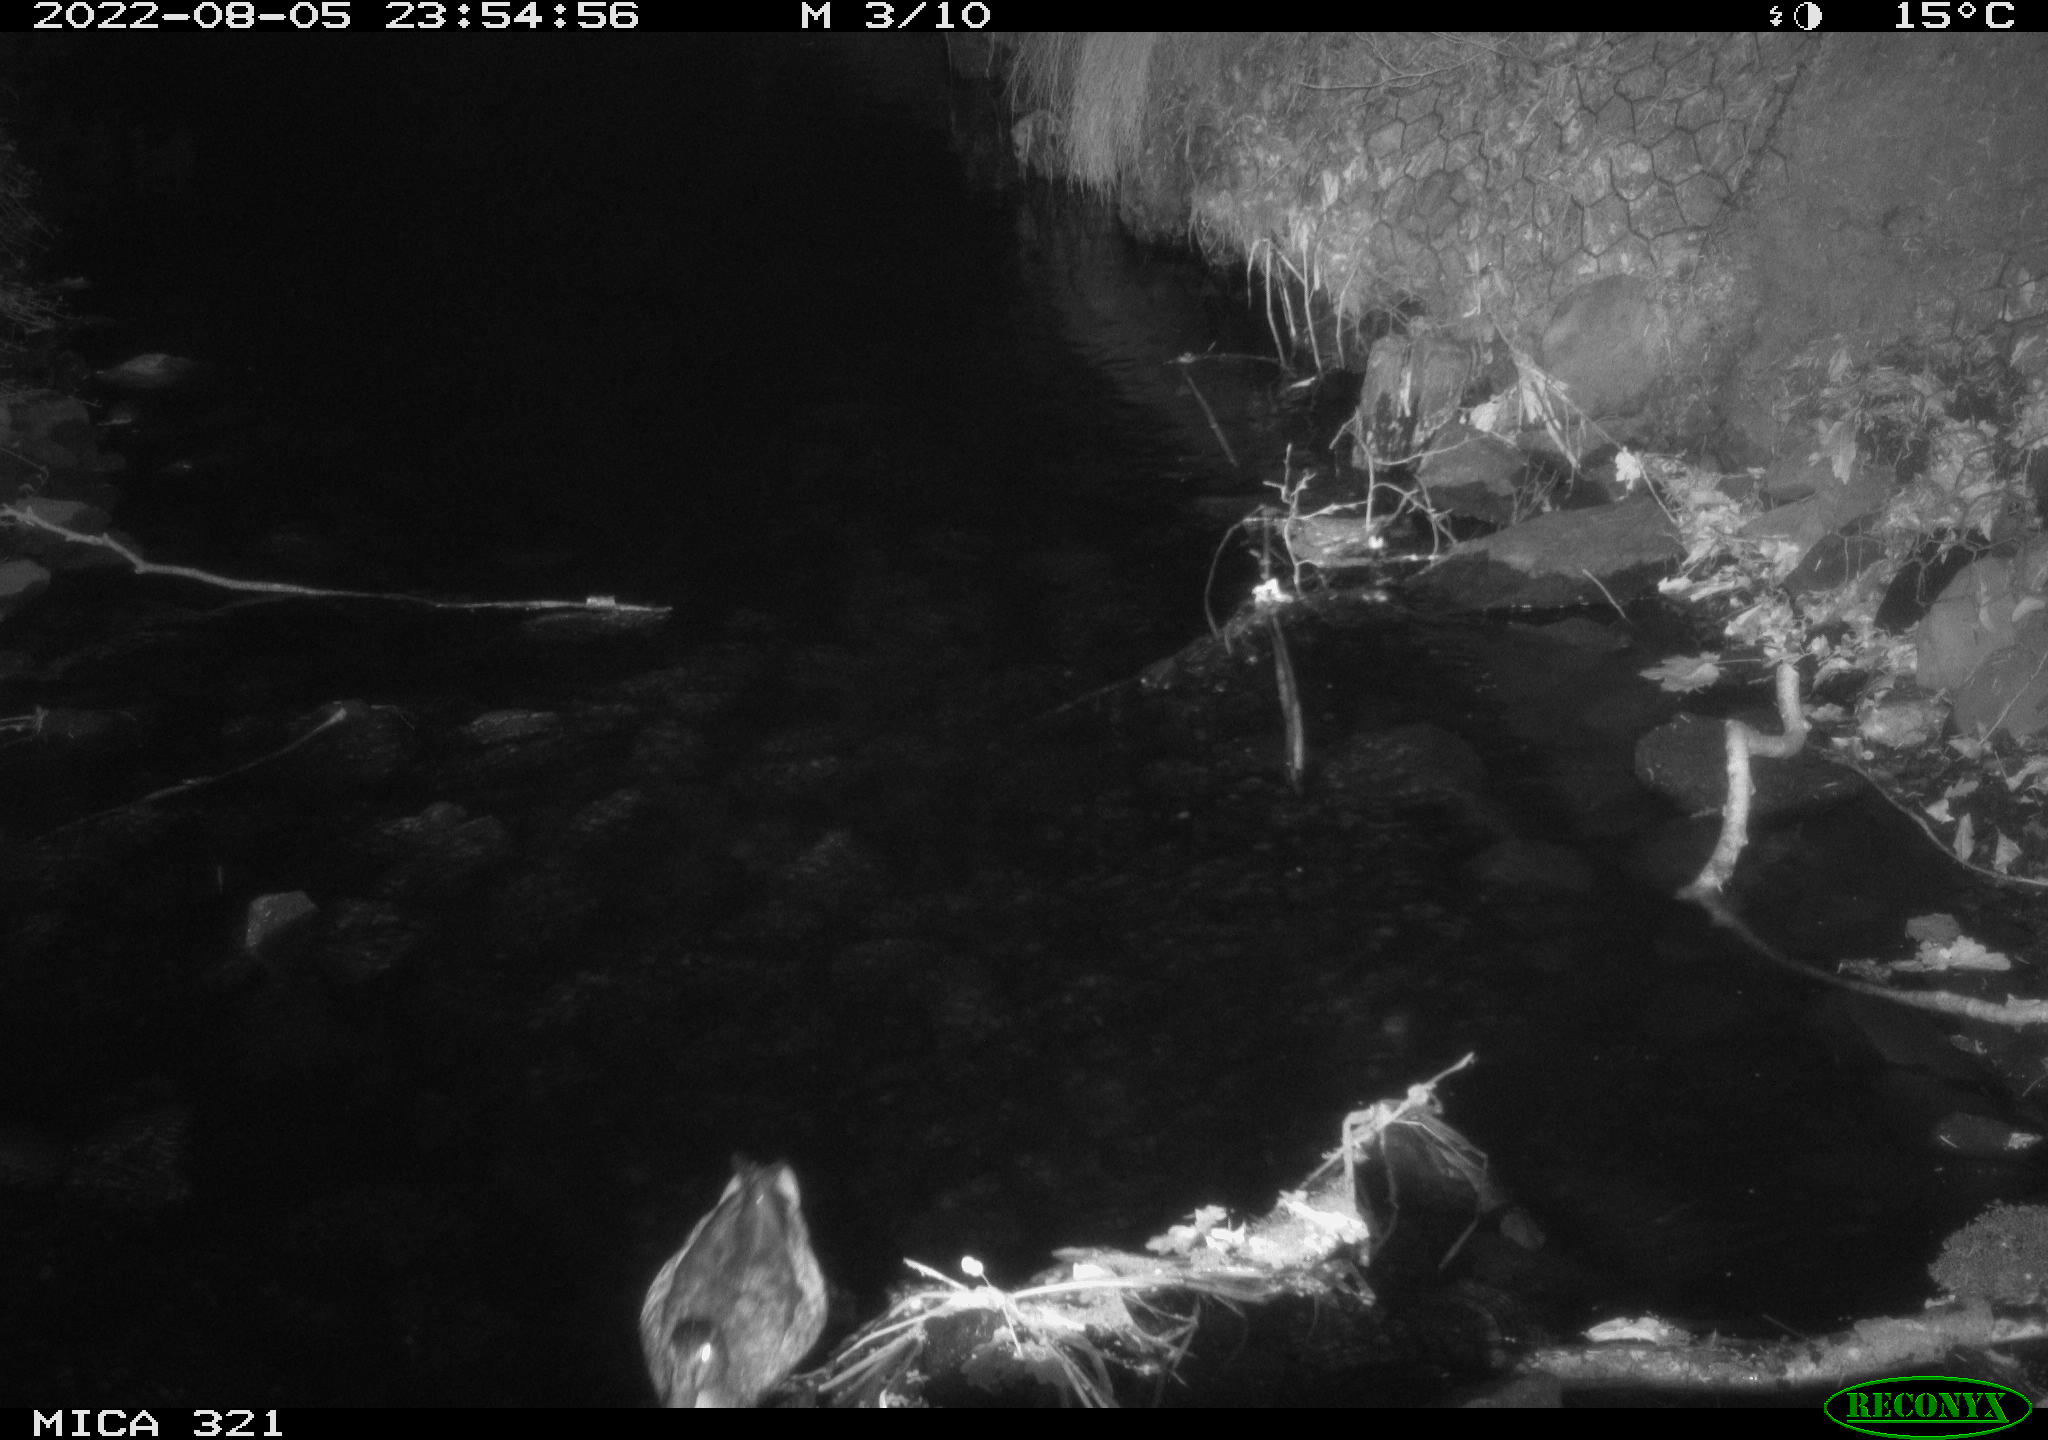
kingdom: Animalia
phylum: Chordata
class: Aves
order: Anseriformes
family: Anatidae
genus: Anas
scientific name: Anas platyrhynchos
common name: Mallard
